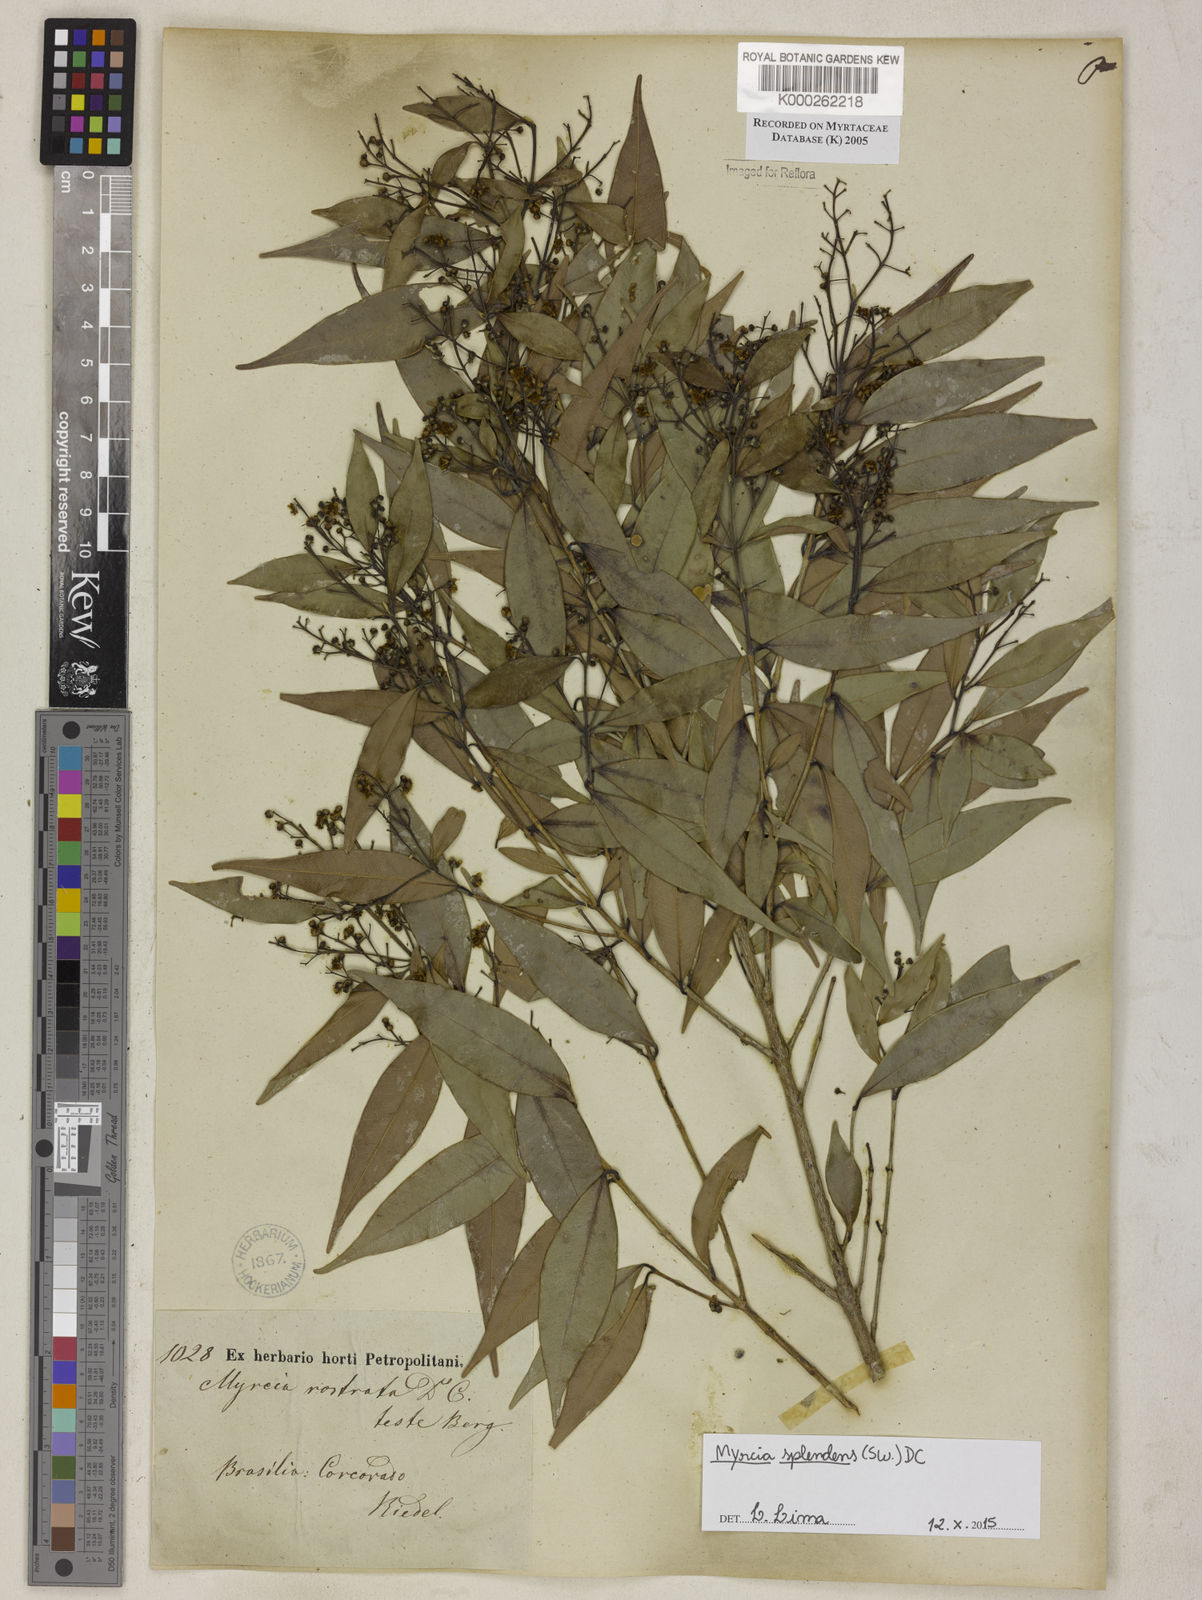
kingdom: Plantae
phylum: Tracheophyta
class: Magnoliopsida
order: Myrtales
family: Myrtaceae
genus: Myrcia
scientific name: Myrcia splendens
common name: Surinam cherry
